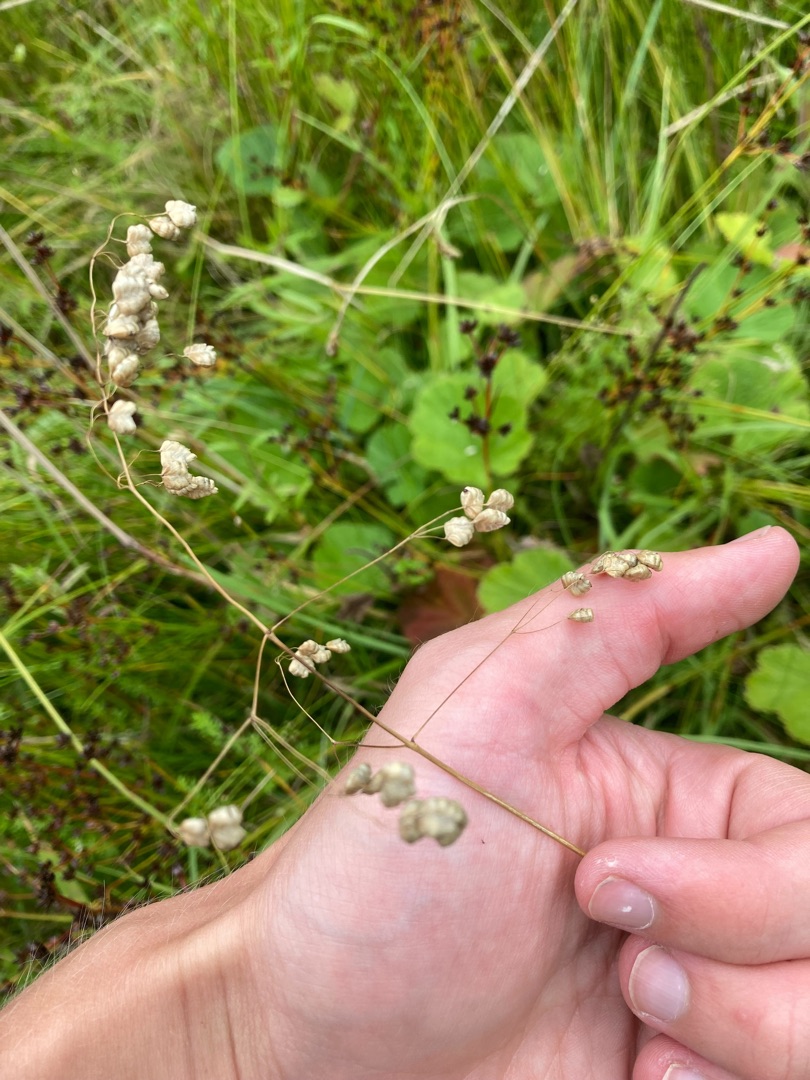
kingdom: Plantae
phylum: Tracheophyta
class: Liliopsida
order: Poales
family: Poaceae
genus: Briza
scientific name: Briza media
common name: Hjertegræs
